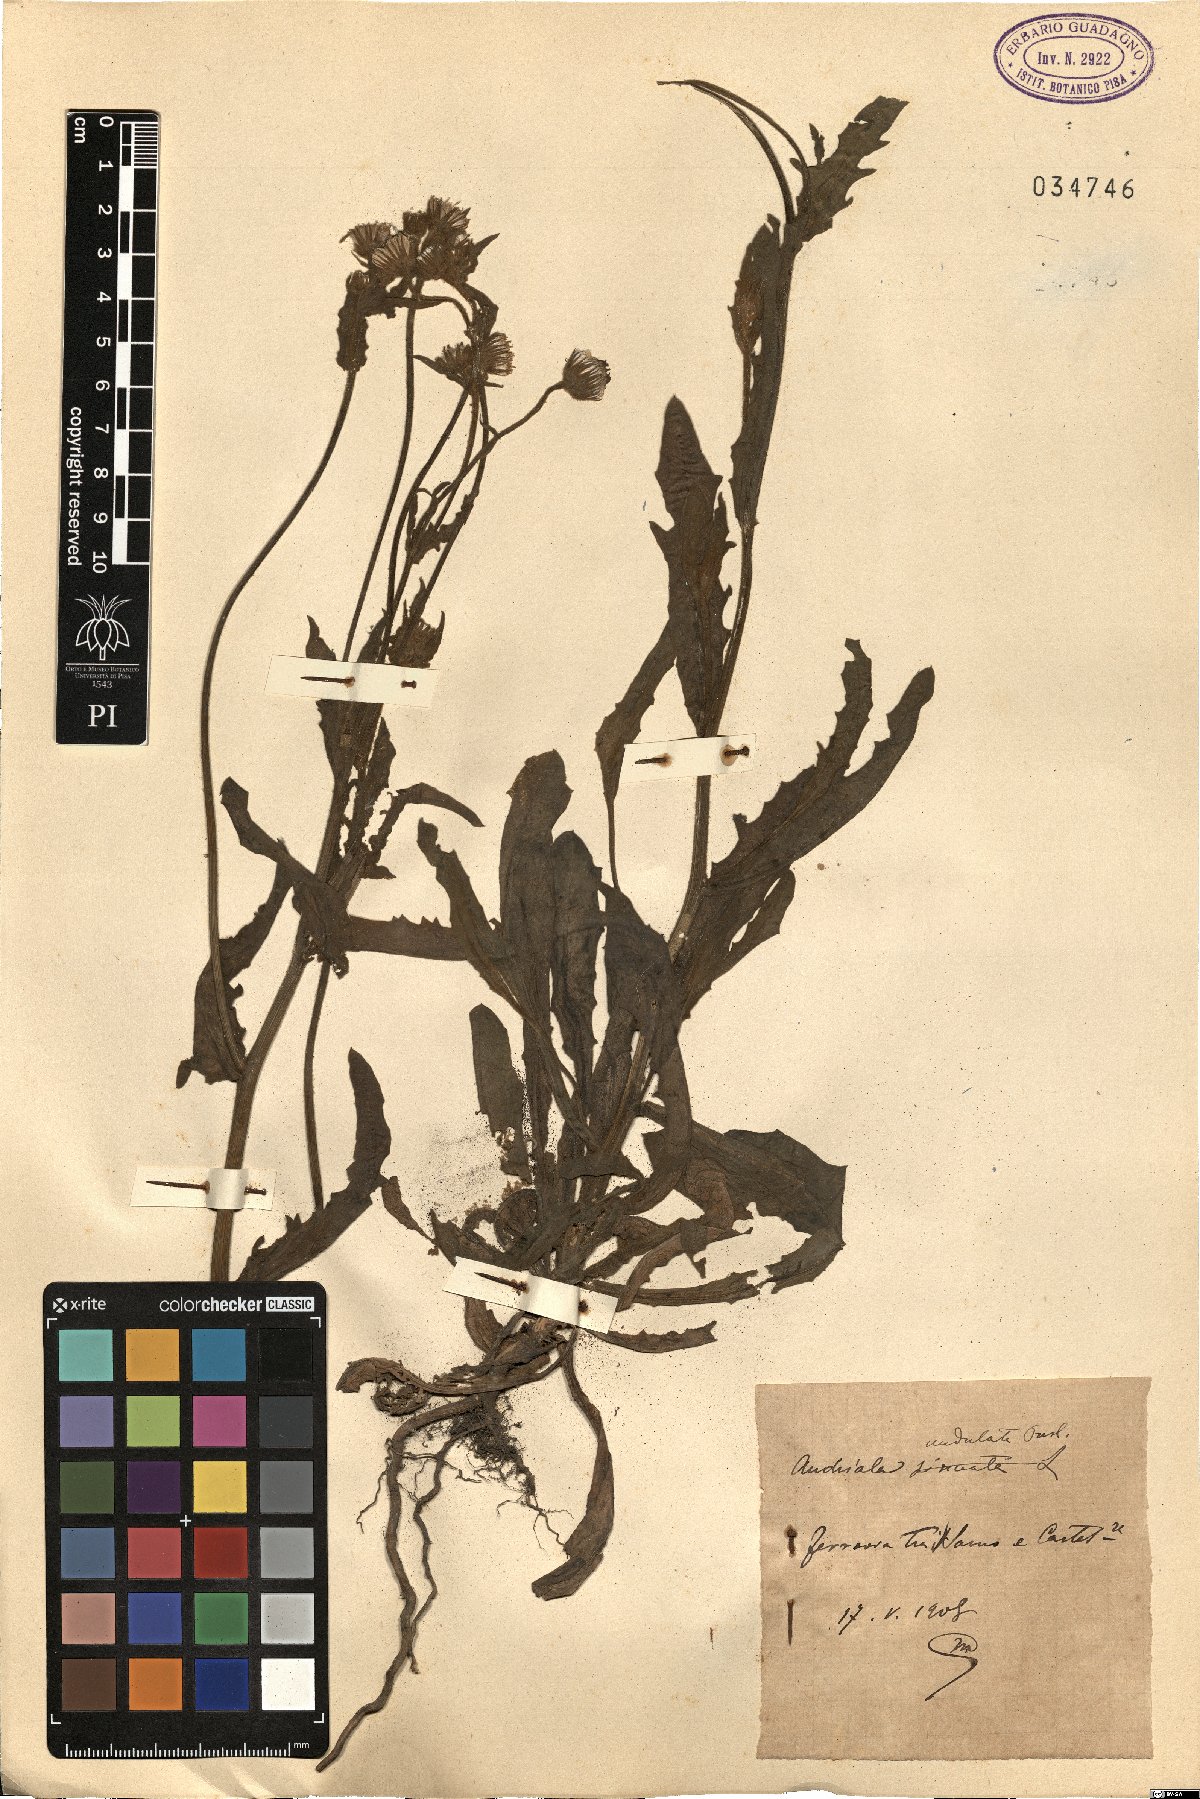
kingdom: Plantae
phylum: Tracheophyta
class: Magnoliopsida
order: Asterales
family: Asteraceae
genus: Andryala
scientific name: Andryala integrifolia
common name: Common andryala
